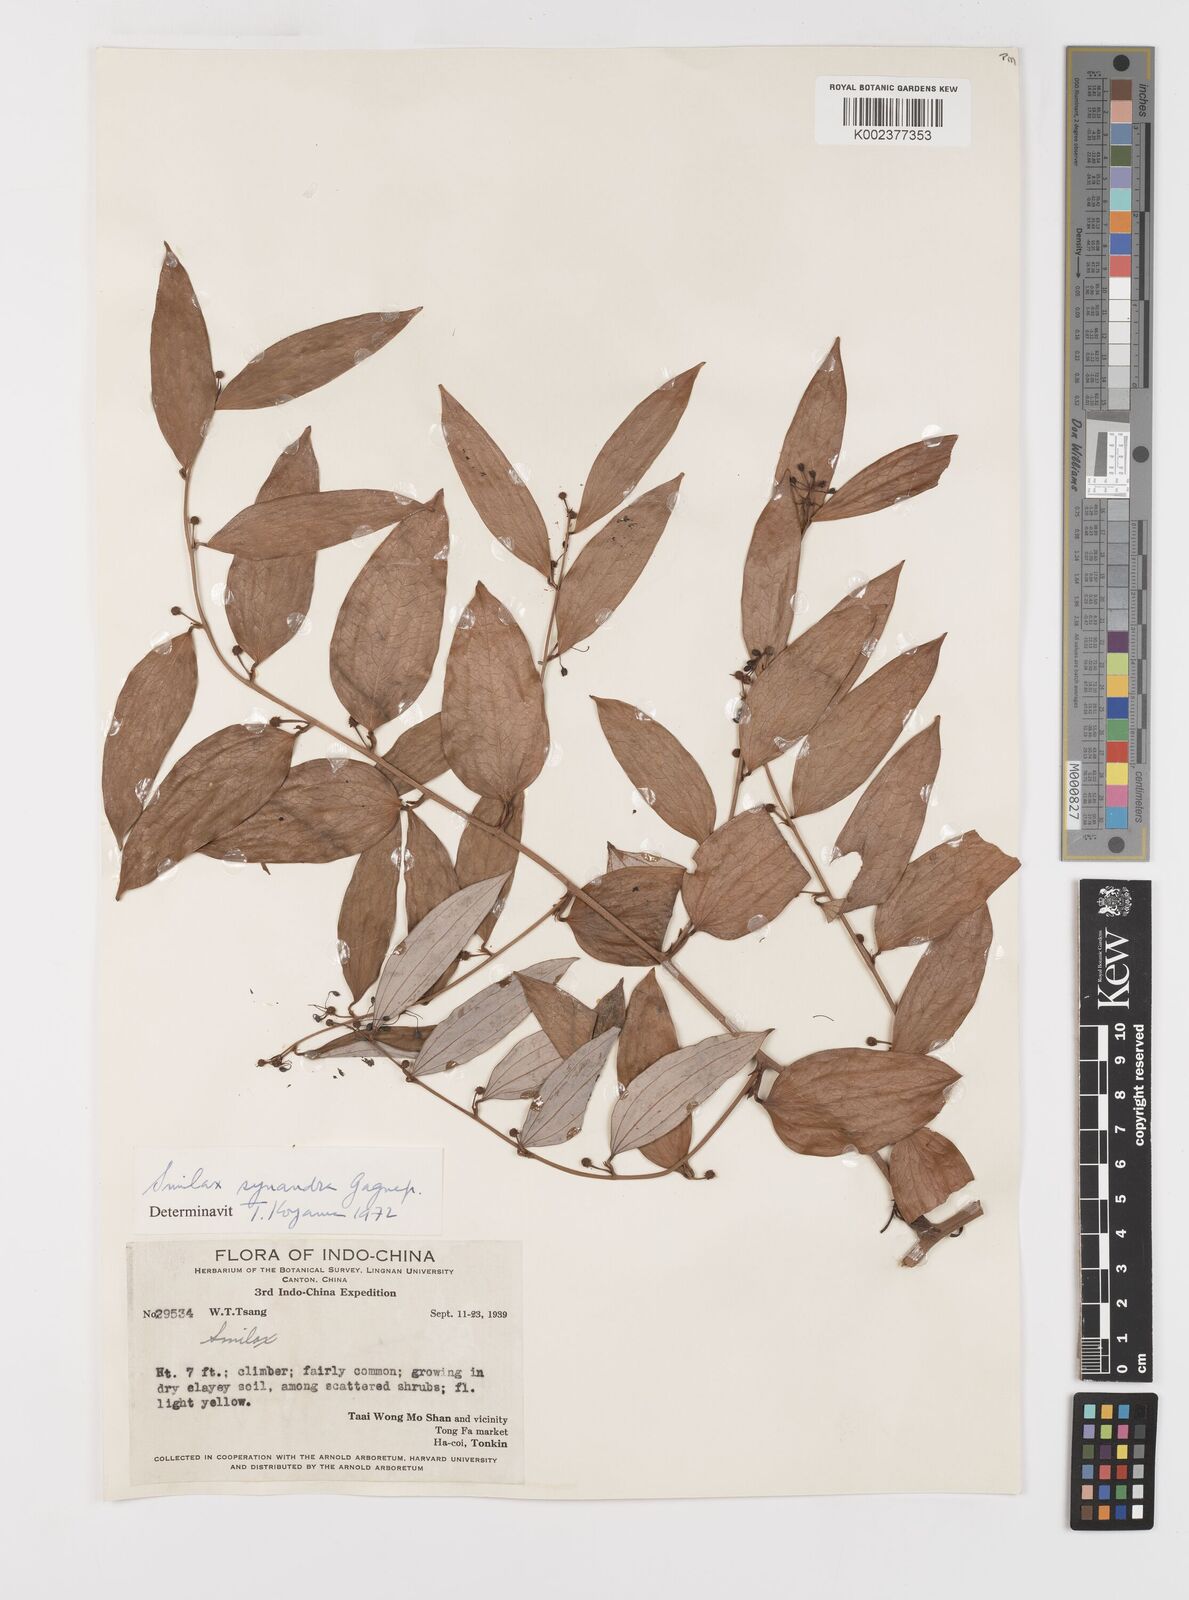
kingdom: Plantae
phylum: Tracheophyta
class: Liliopsida
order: Liliales
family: Smilacaceae
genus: Smilax
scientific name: Smilax synandra
